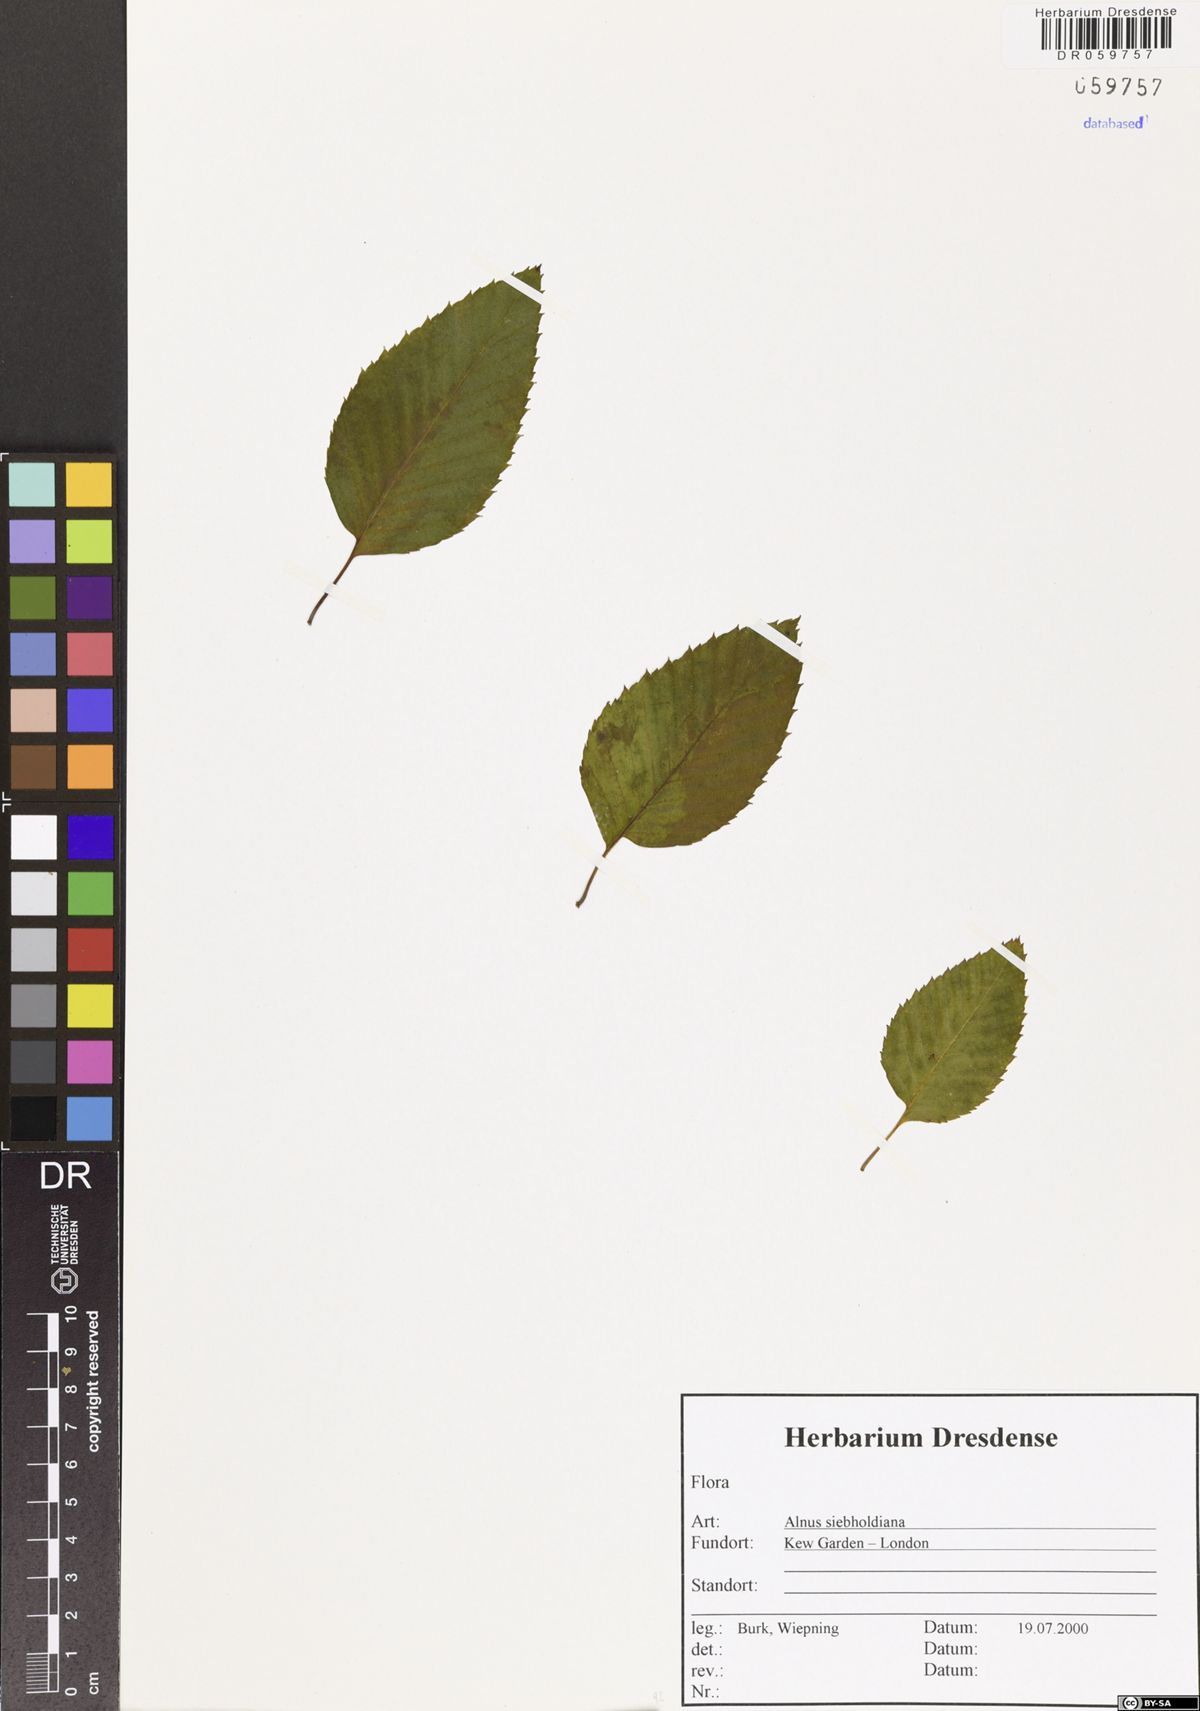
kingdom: Plantae
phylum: Tracheophyta
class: Magnoliopsida
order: Fagales
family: Betulaceae
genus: Alnus
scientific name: Alnus sieboldiana
